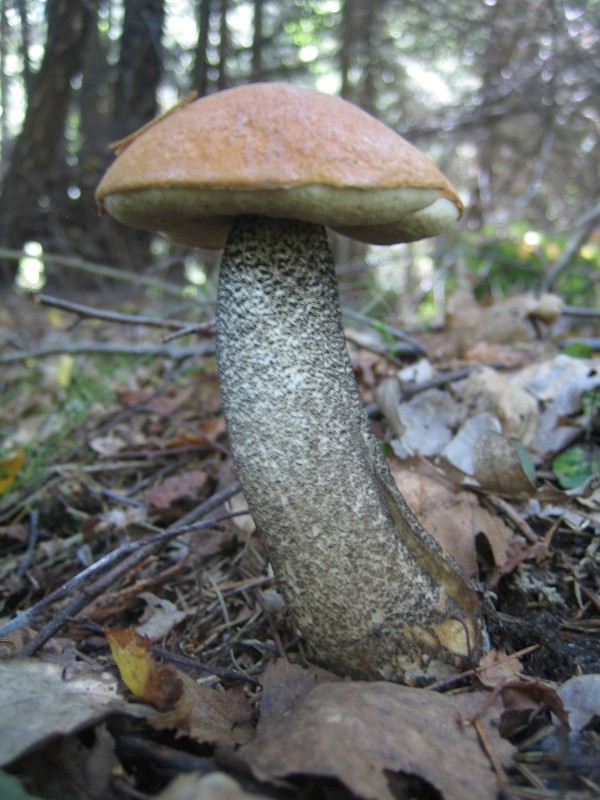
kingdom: Fungi
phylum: Basidiomycota
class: Agaricomycetes
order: Boletales
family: Boletaceae
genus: Leccinum
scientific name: Leccinum versipelle
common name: orange skælrørhat
